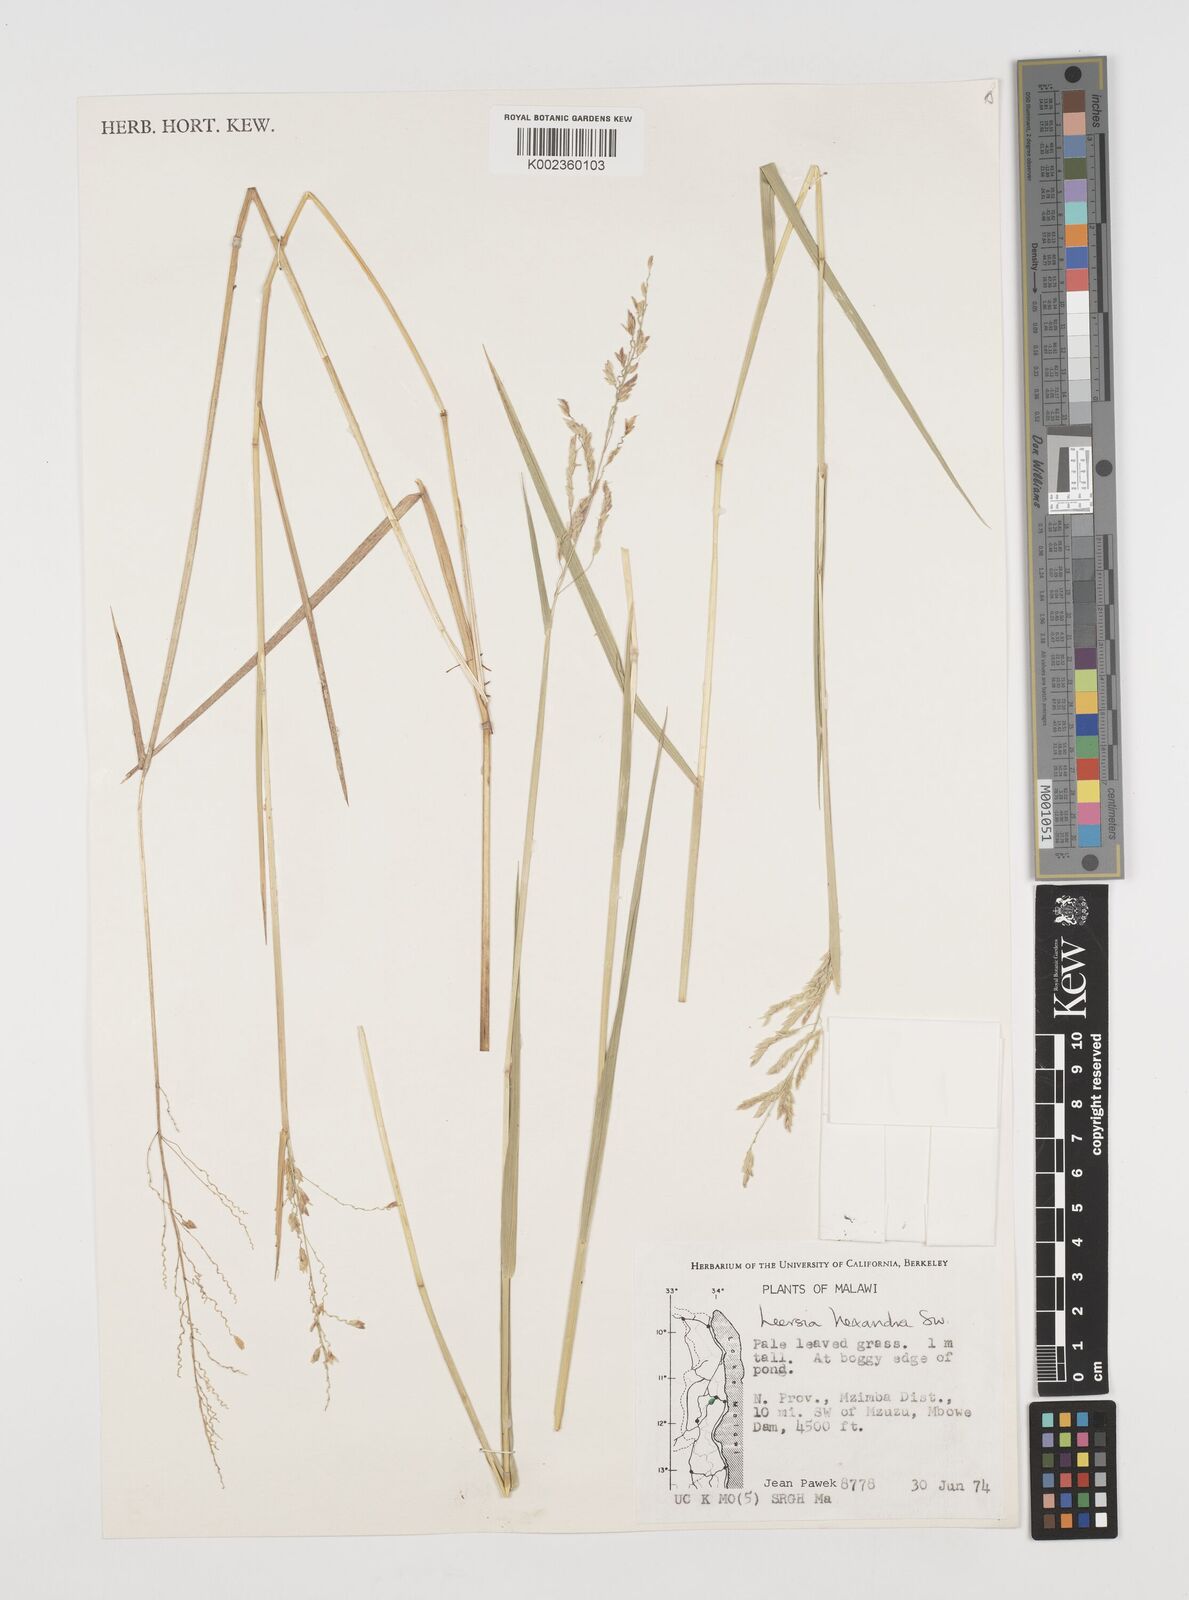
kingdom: Plantae
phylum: Tracheophyta
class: Liliopsida
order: Poales
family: Poaceae
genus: Leersia
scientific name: Leersia hexandra
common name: Southern cut grass
